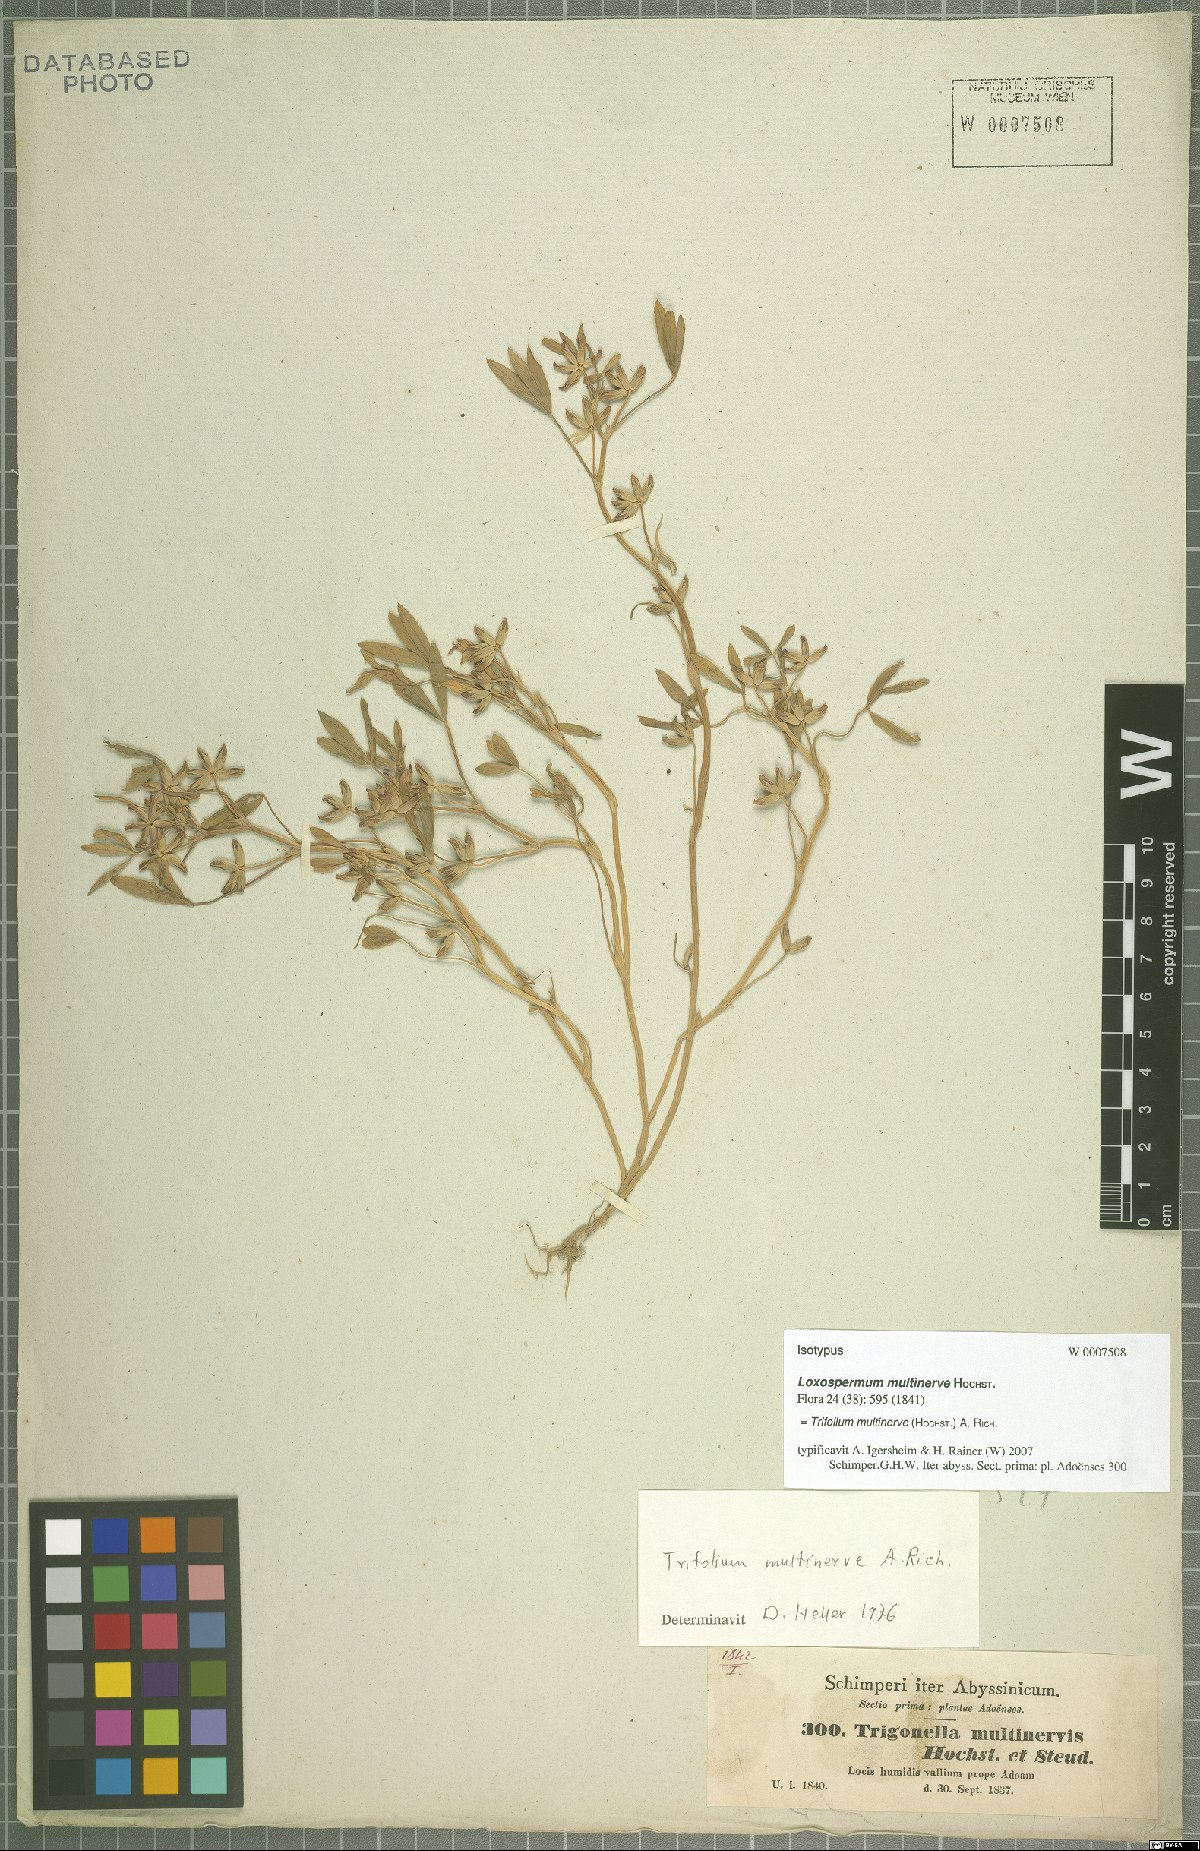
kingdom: Plantae
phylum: Tracheophyta
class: Magnoliopsida
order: Fabales
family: Fabaceae
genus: Trifolium
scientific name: Trifolium multinerve
